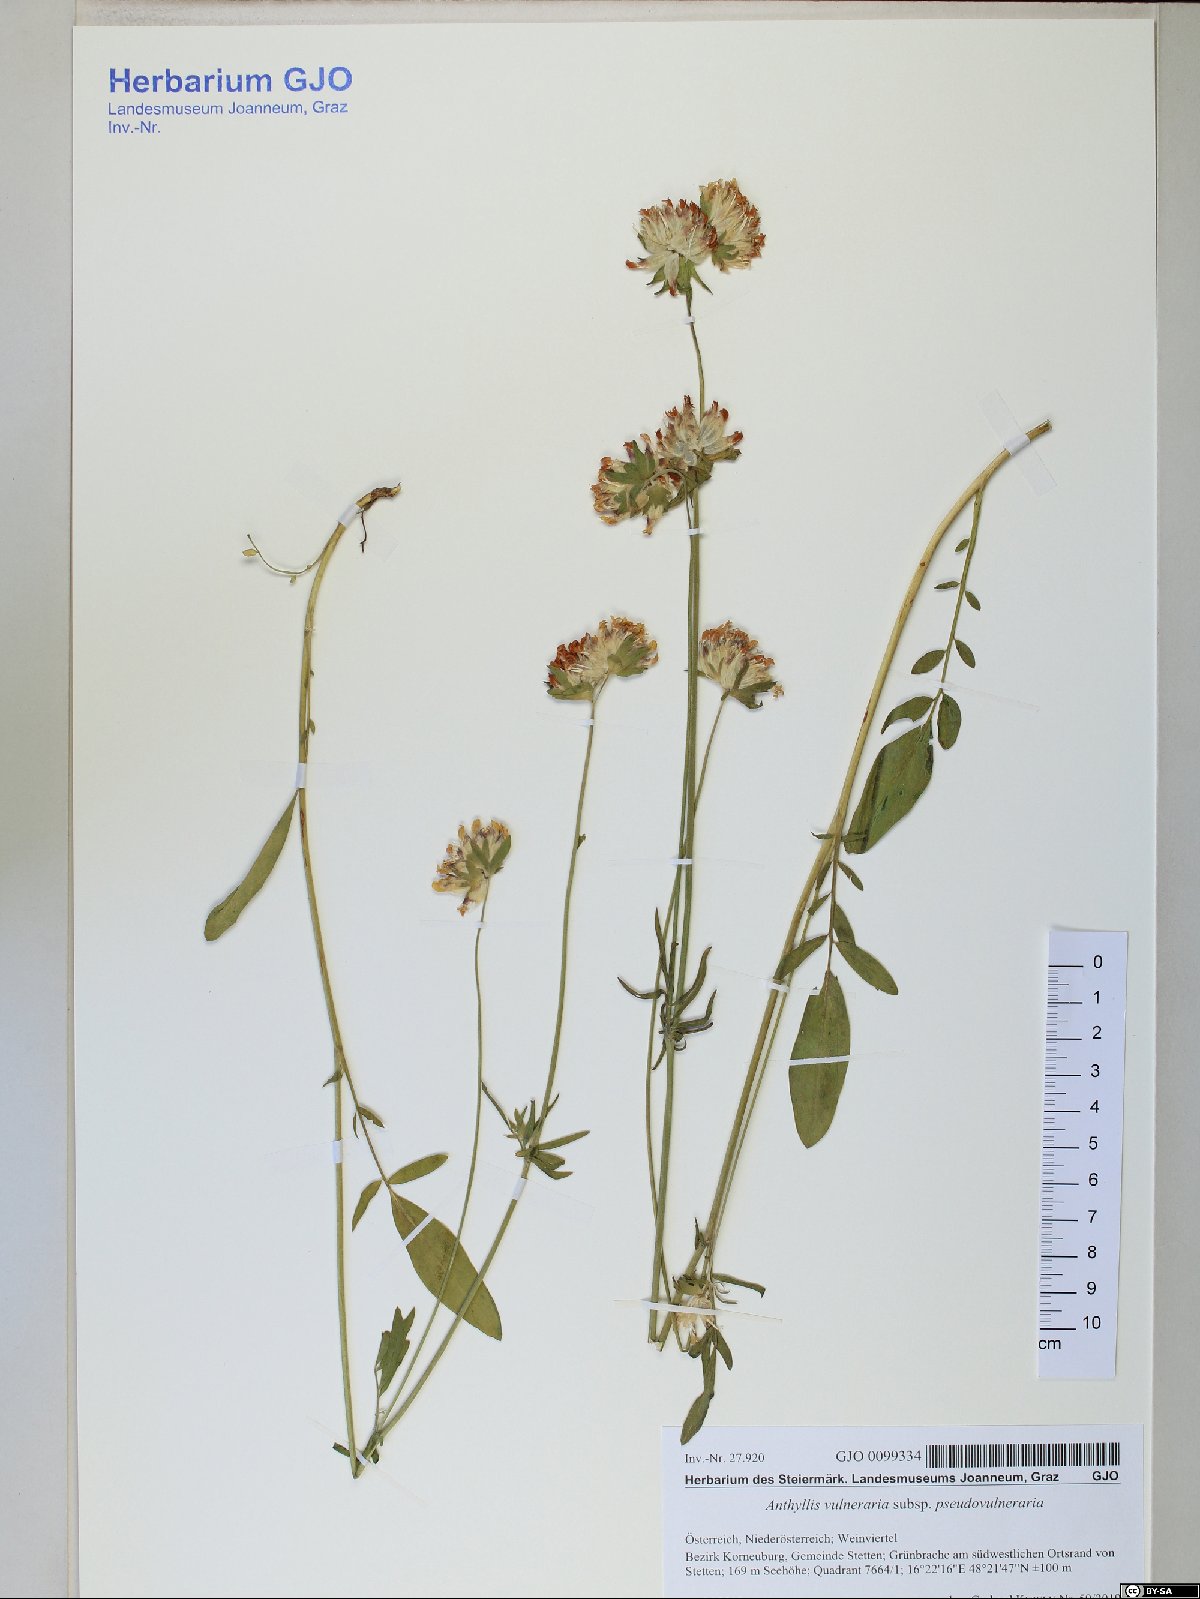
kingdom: Plantae
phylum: Tracheophyta
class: Magnoliopsida
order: Fabales
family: Fabaceae
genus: Anthyllis
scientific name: Anthyllis vulneraria
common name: Kidney vetch
